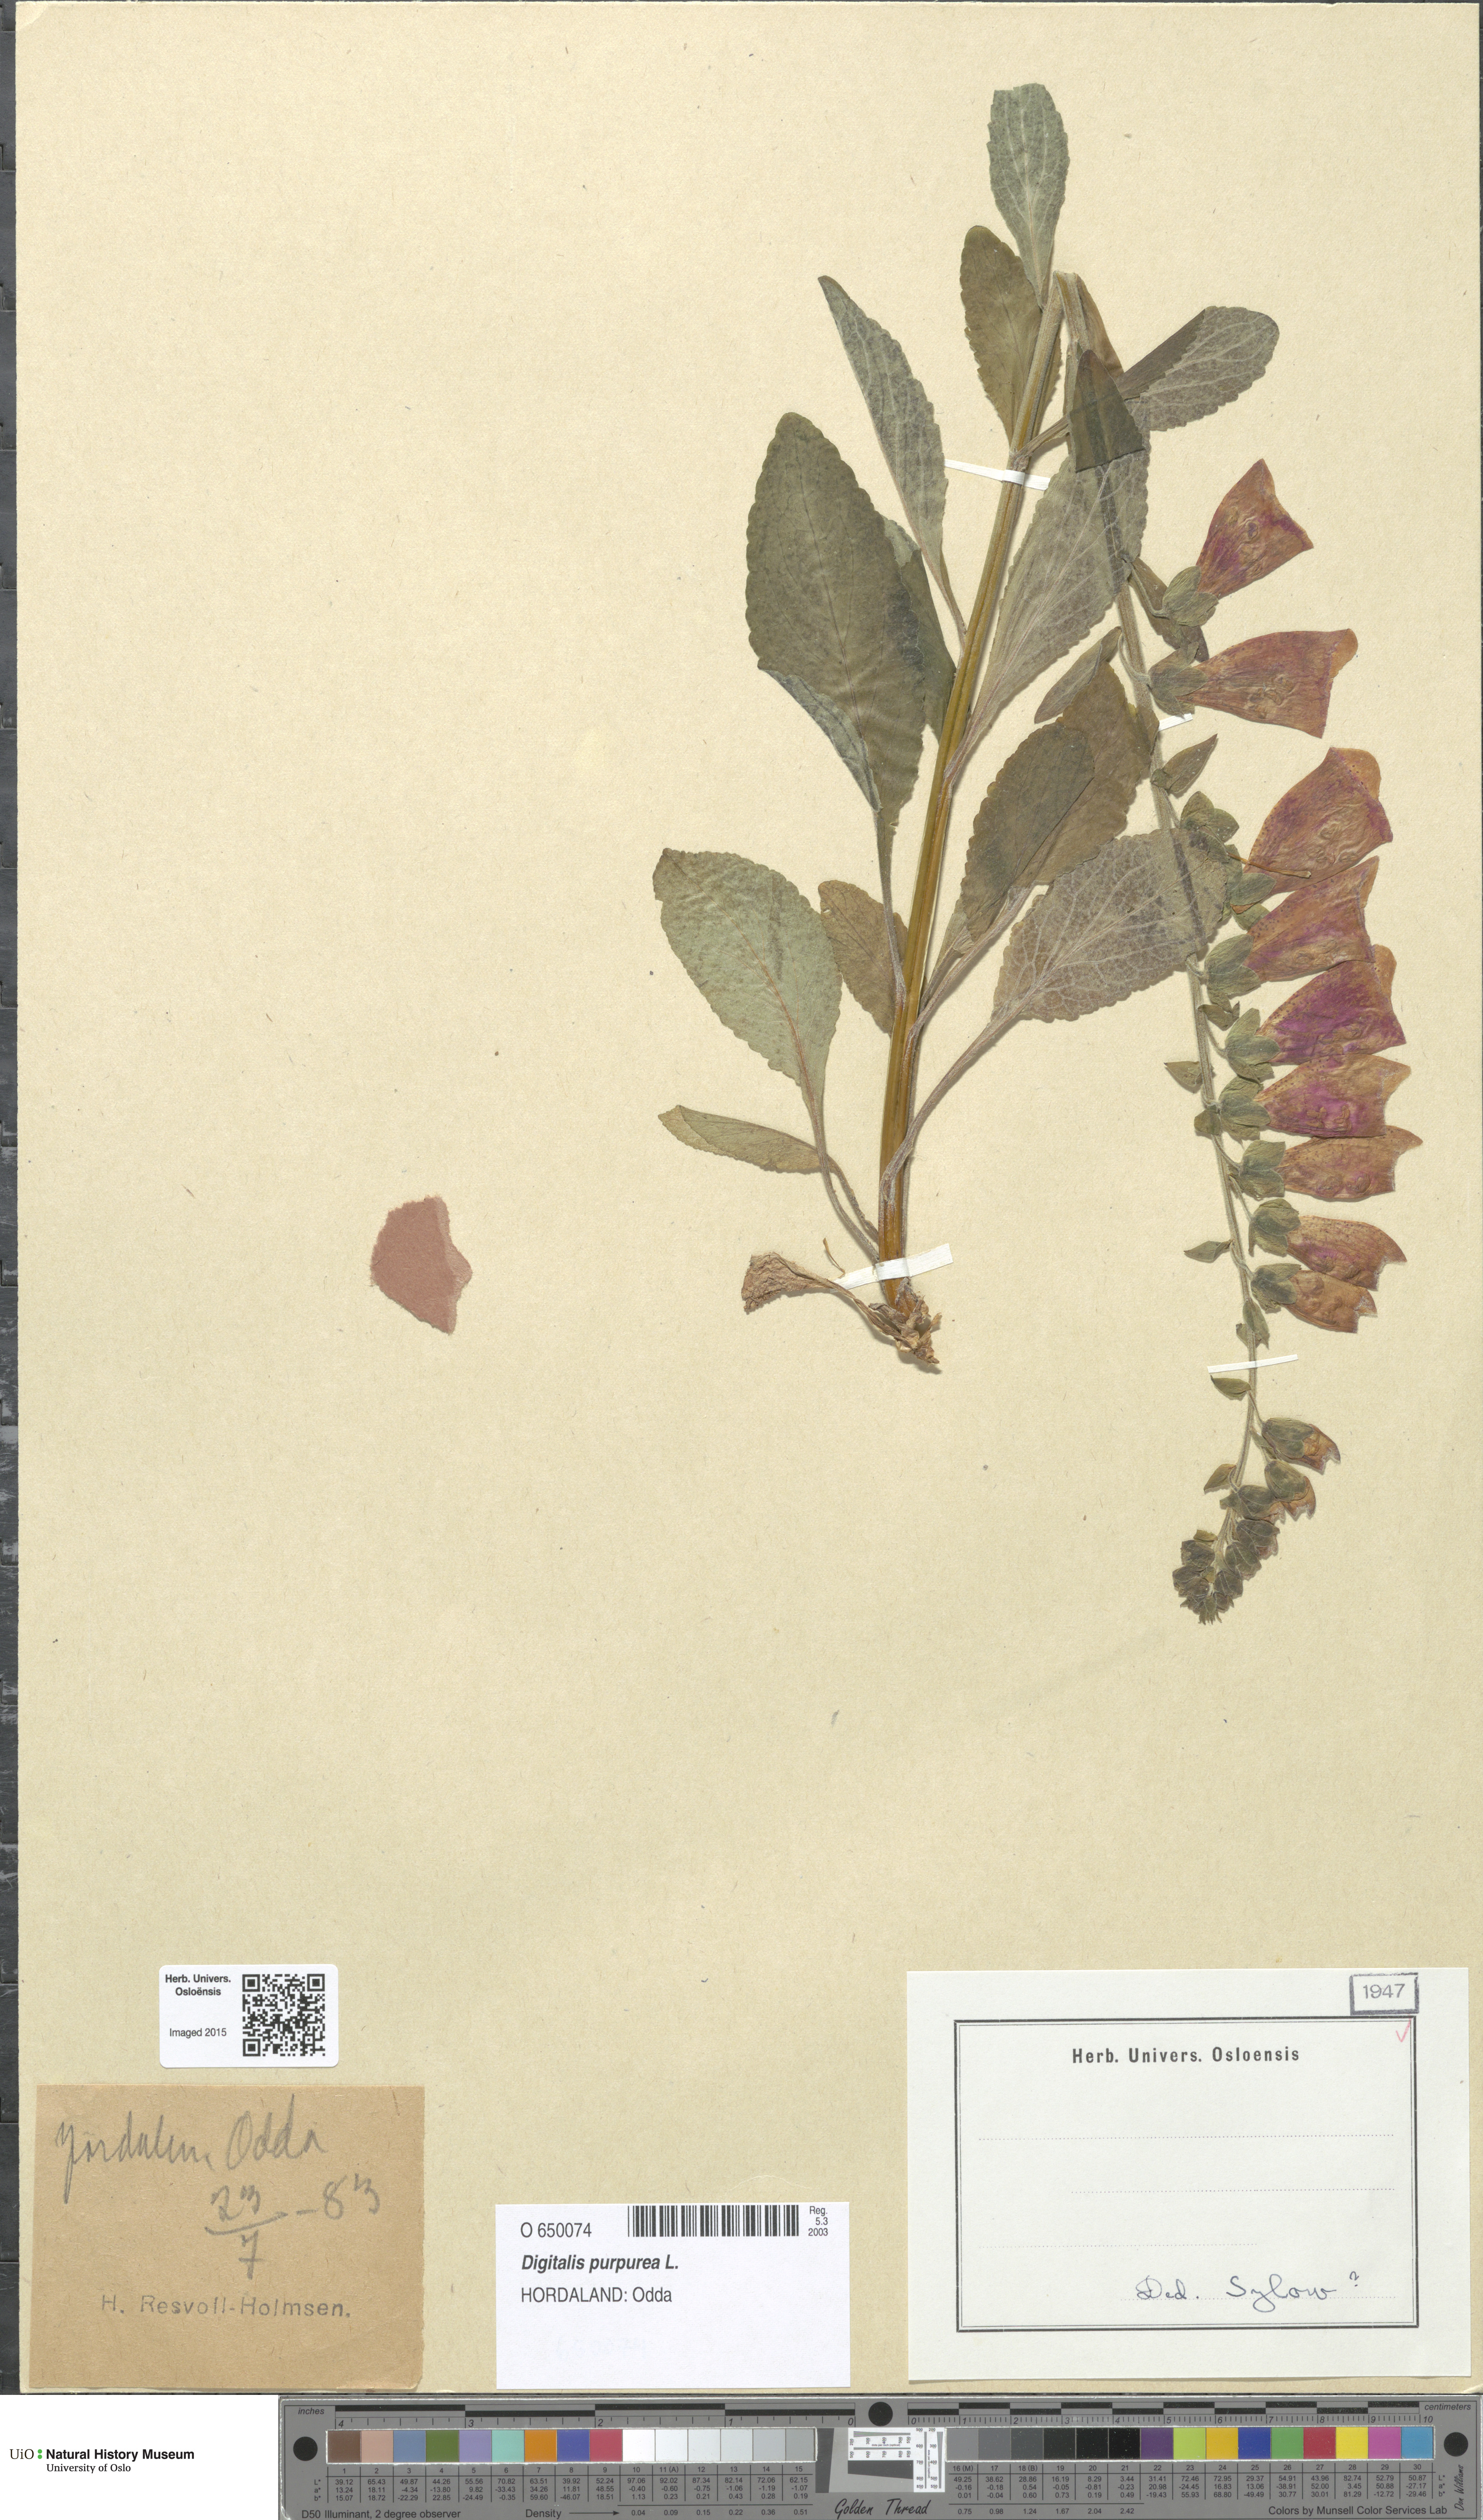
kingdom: Plantae
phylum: Tracheophyta
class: Magnoliopsida
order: Lamiales
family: Plantaginaceae
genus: Digitalis
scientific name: Digitalis purpurea
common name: Foxglove
